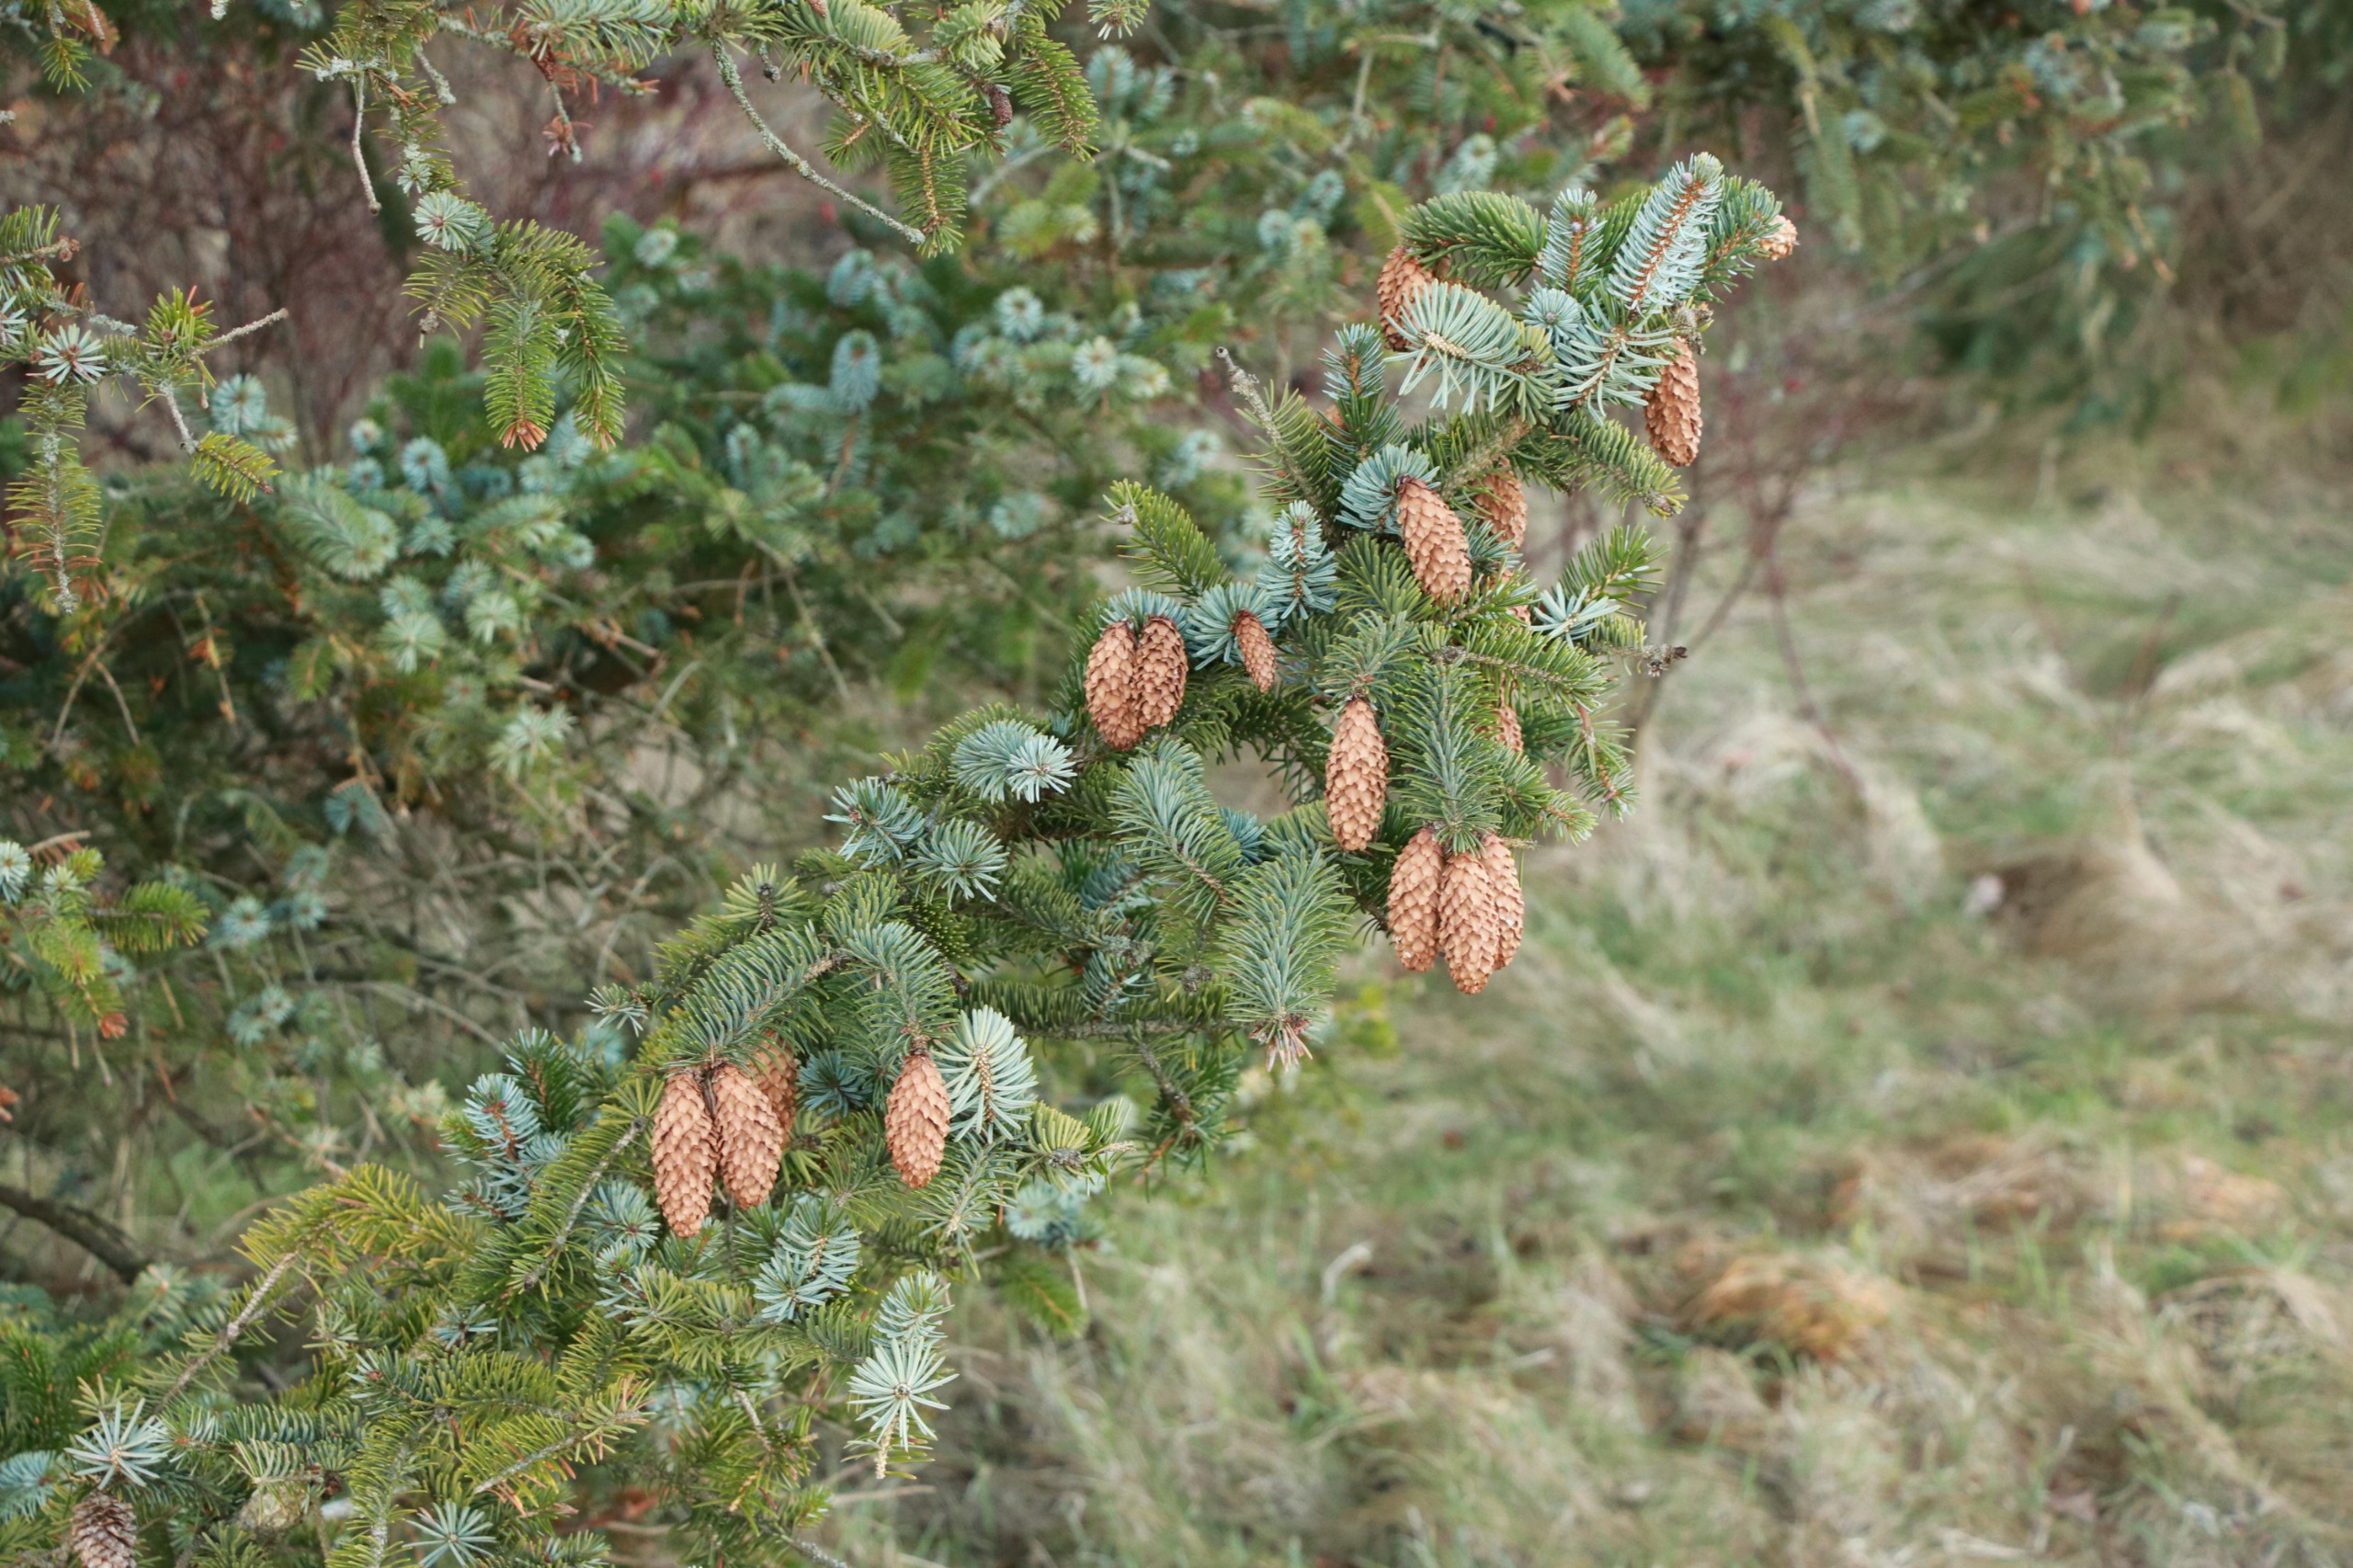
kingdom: Plantae
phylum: Tracheophyta
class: Pinopsida
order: Pinales
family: Pinaceae
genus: Picea
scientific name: Picea sitchensis
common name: Sitka-gran
